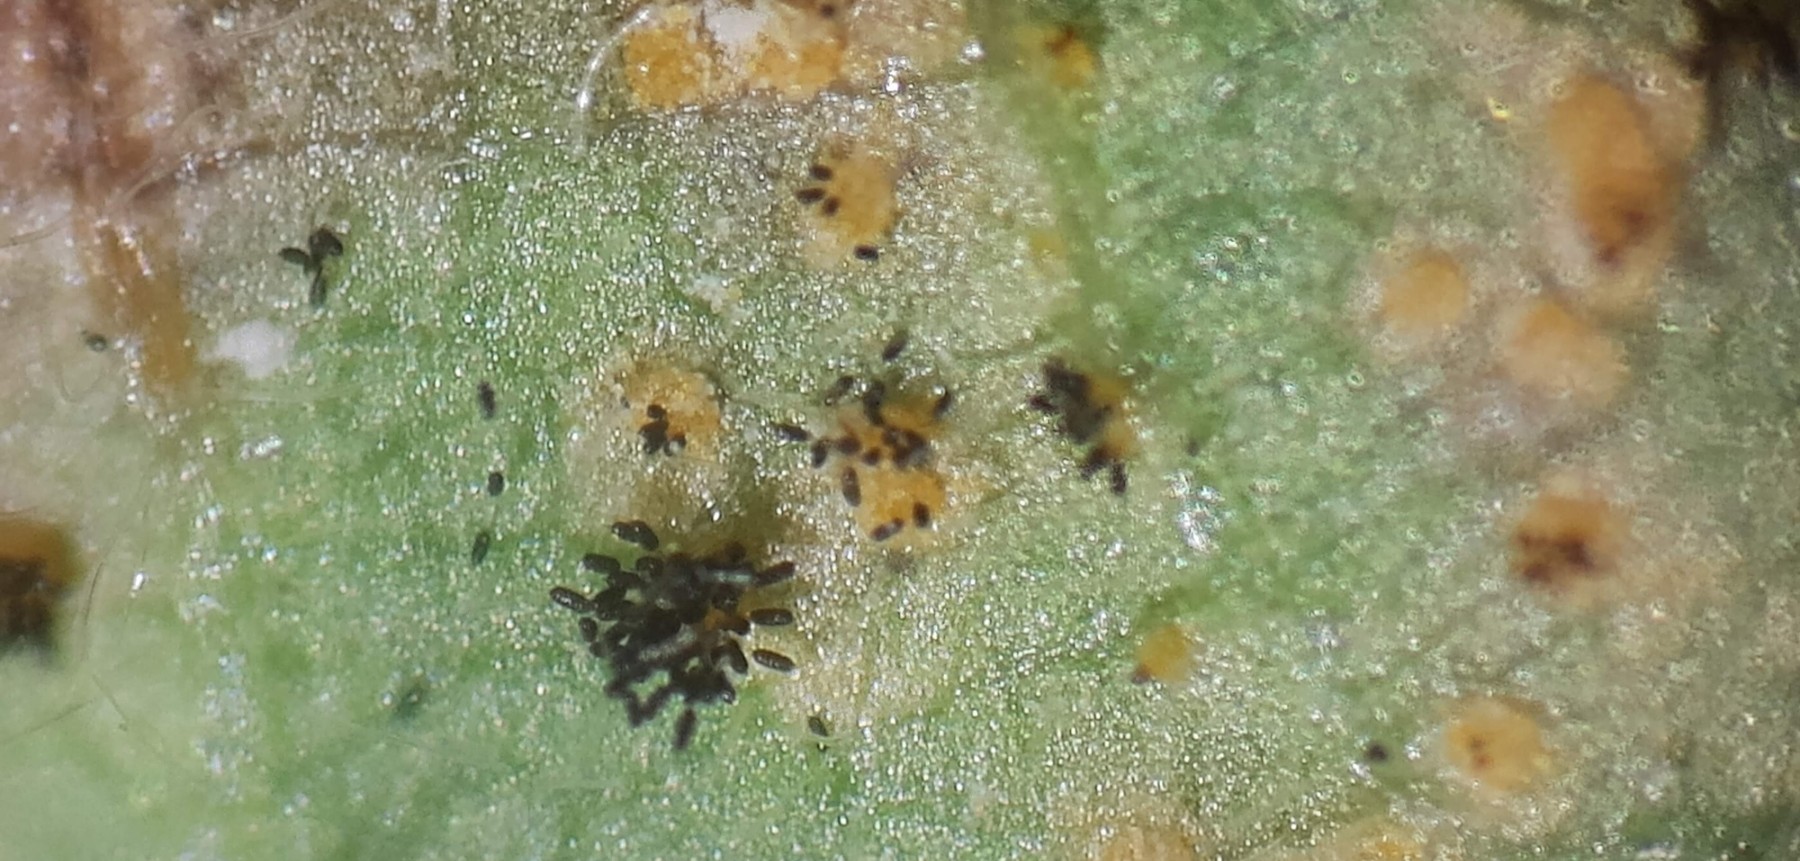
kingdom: Fungi
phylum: Basidiomycota
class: Pucciniomycetes
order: Pucciniales
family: Phragmidiaceae
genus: Phragmidium
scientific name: Phragmidium bulbosum
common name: brombær-flercellerust
